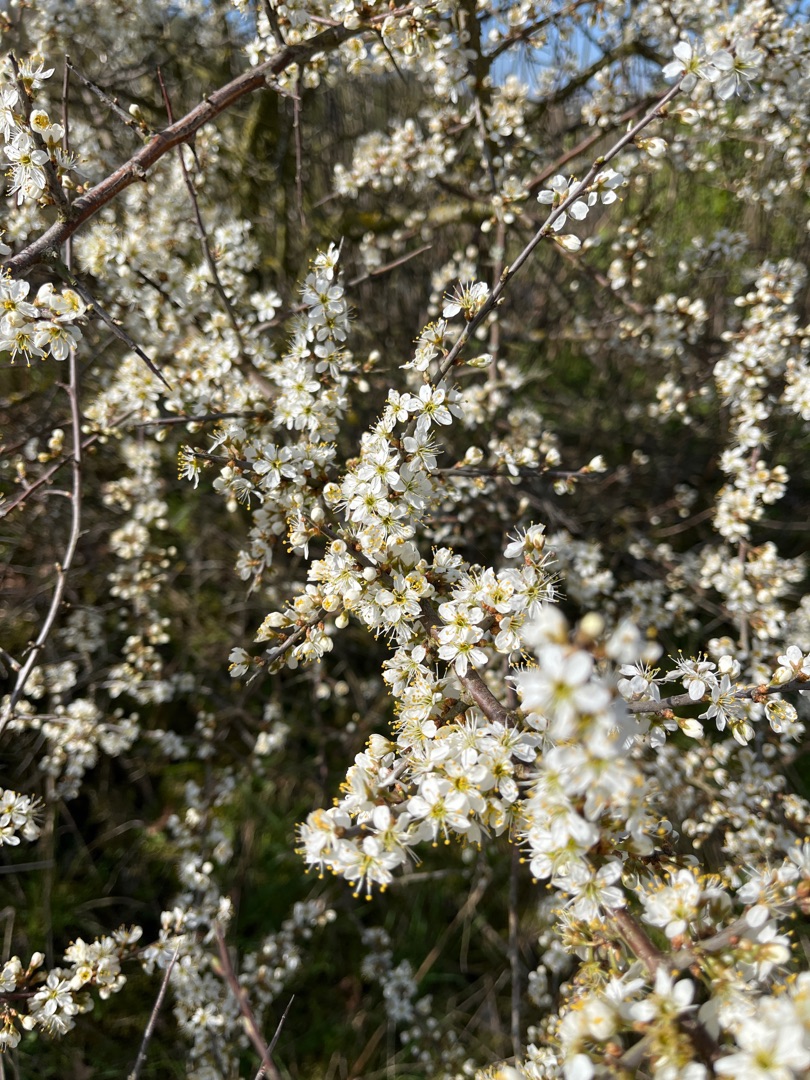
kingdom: Plantae
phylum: Tracheophyta
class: Magnoliopsida
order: Rosales
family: Rosaceae
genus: Prunus
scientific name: Prunus spinosa
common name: Slåen
